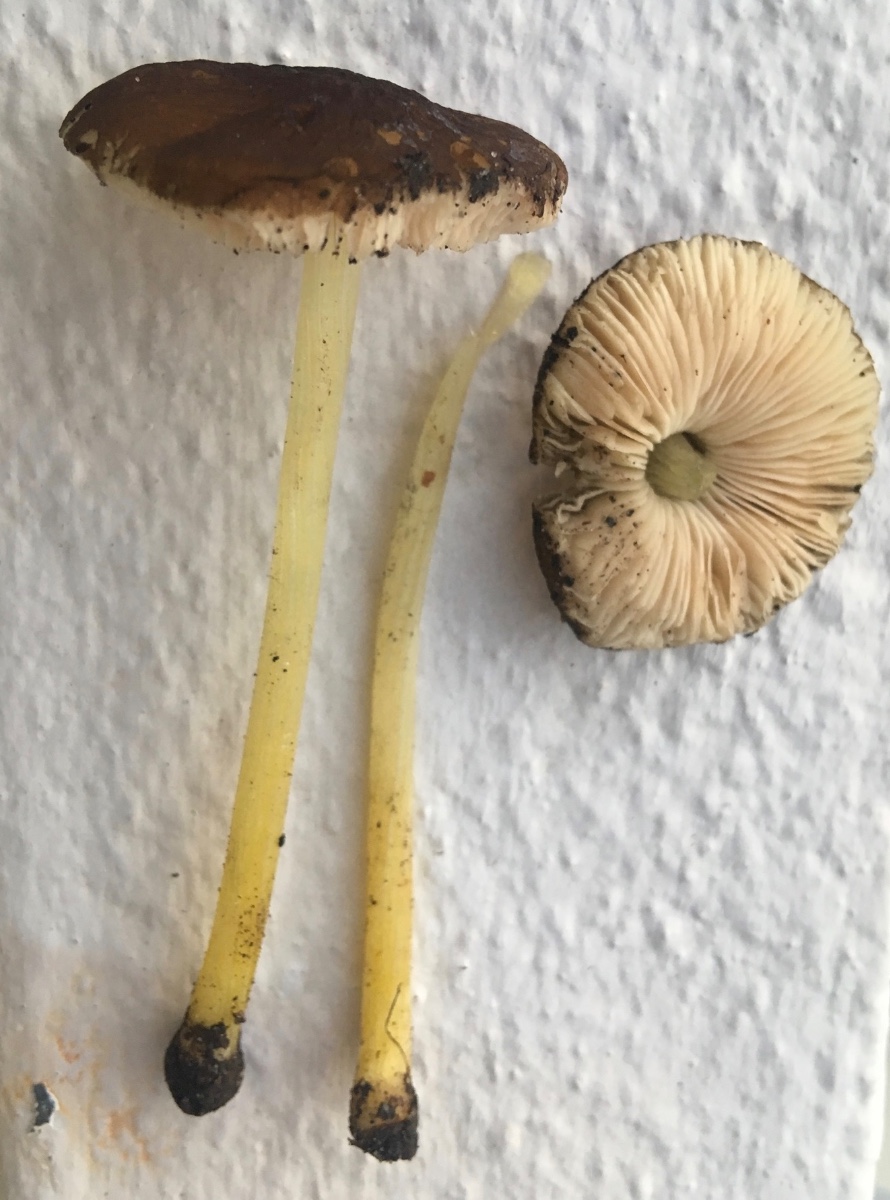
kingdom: Fungi
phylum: Basidiomycota
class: Agaricomycetes
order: Agaricales
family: Pluteaceae
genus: Pluteus
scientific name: Pluteus romellii
